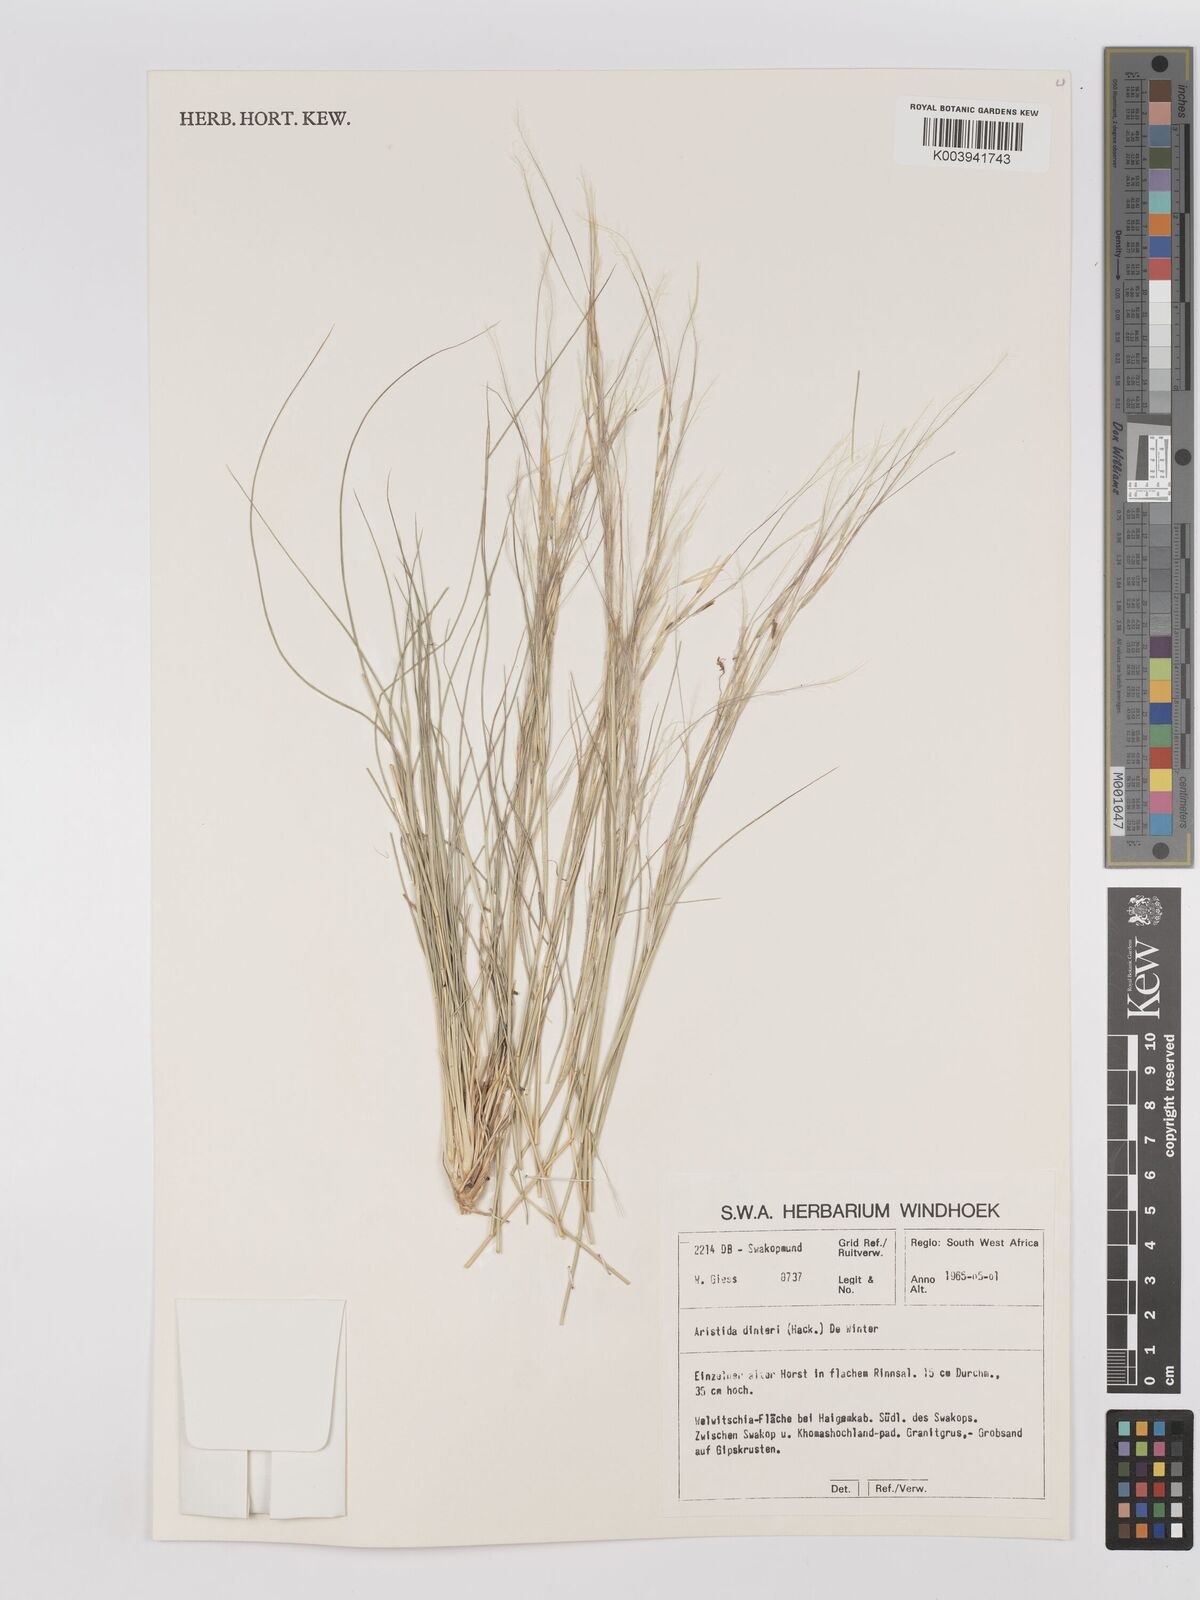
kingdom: Plantae
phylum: Tracheophyta
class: Liliopsida
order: Poales
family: Poaceae
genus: Stipagrostis
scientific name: Stipagrostis dinteri
